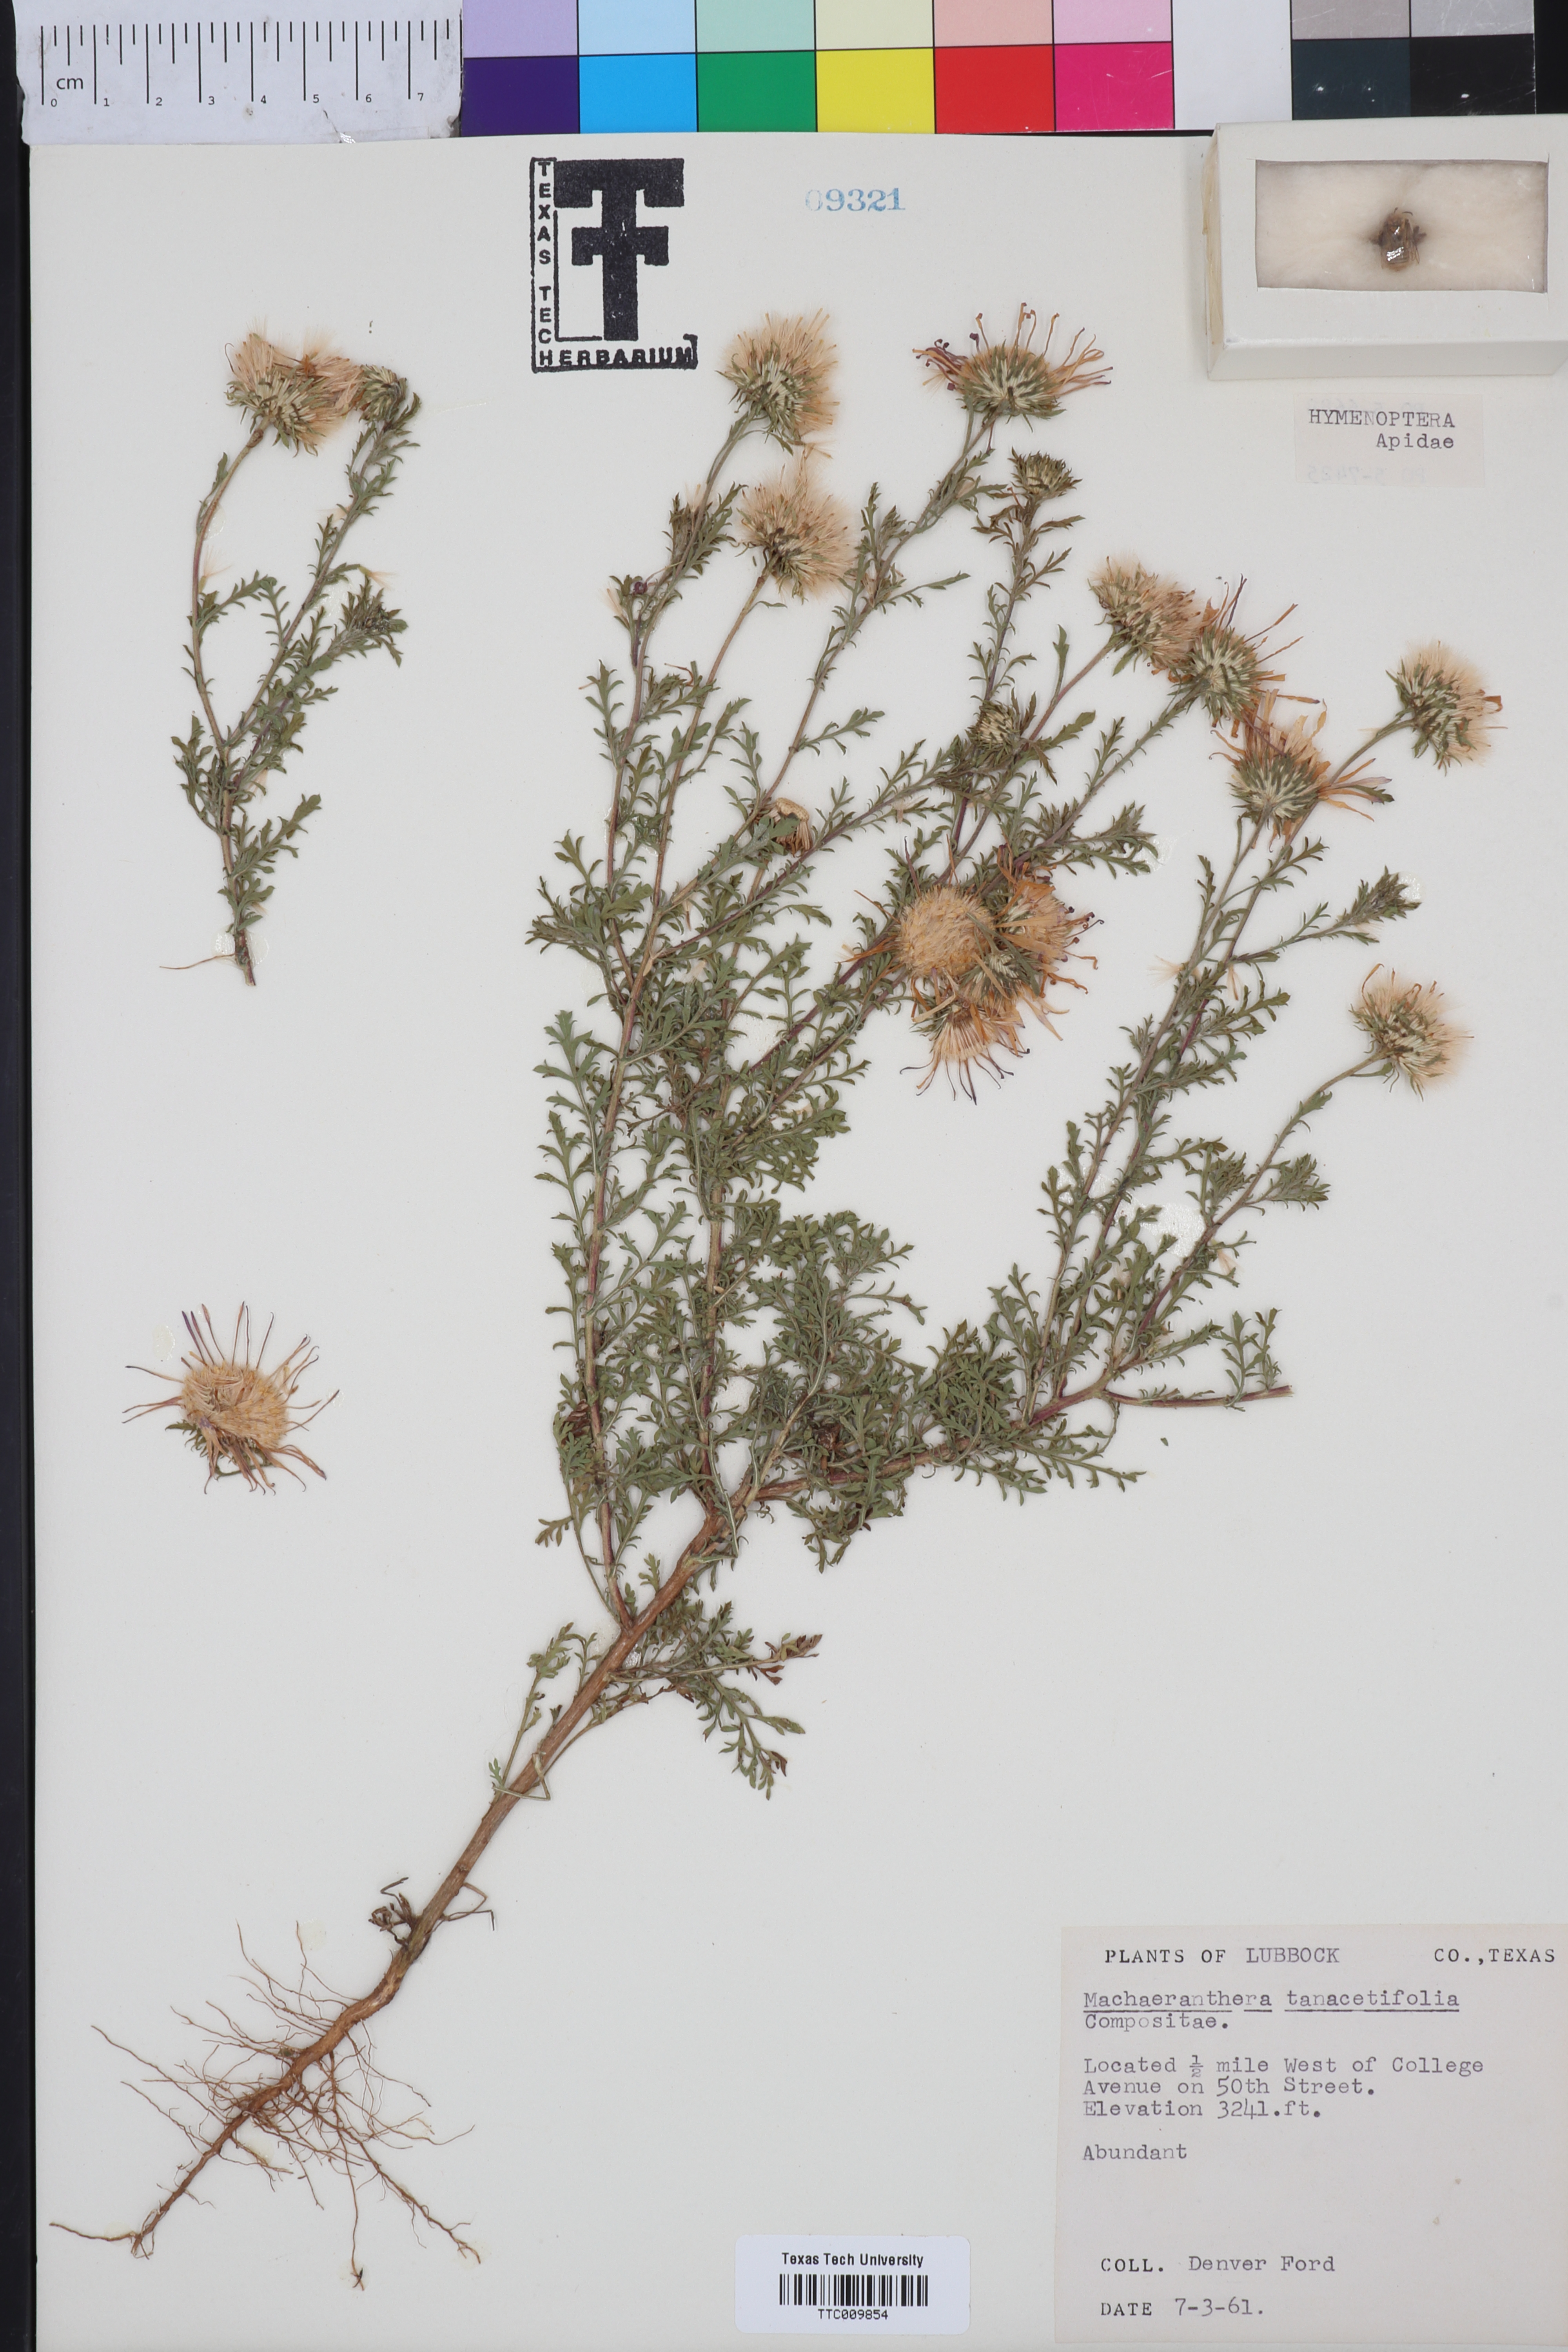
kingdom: Plantae
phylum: Tracheophyta
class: Magnoliopsida
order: Asterales
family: Asteraceae
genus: Machaeranthera
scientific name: Machaeranthera tanacetifolia
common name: Tansy-aster
